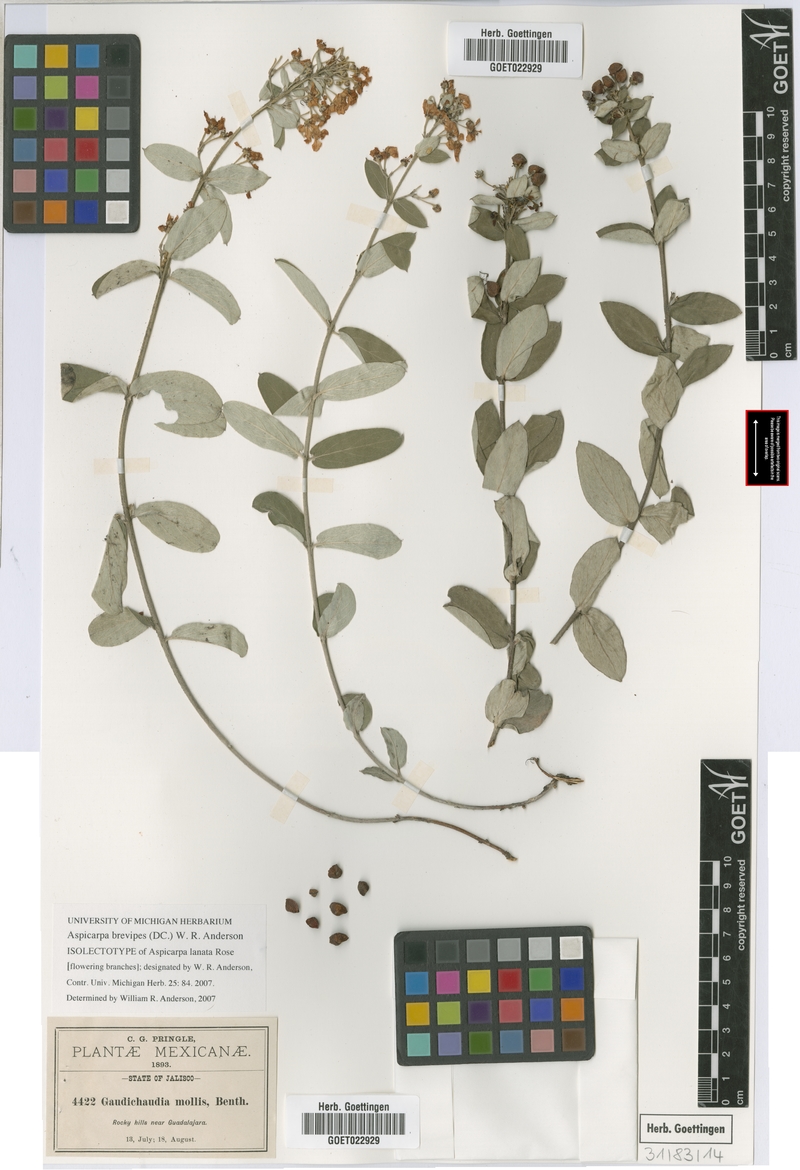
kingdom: Plantae
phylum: Tracheophyta
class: Magnoliopsida
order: Malpighiales
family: Malpighiaceae
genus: Aspicarpa
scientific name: Aspicarpa brevipes
